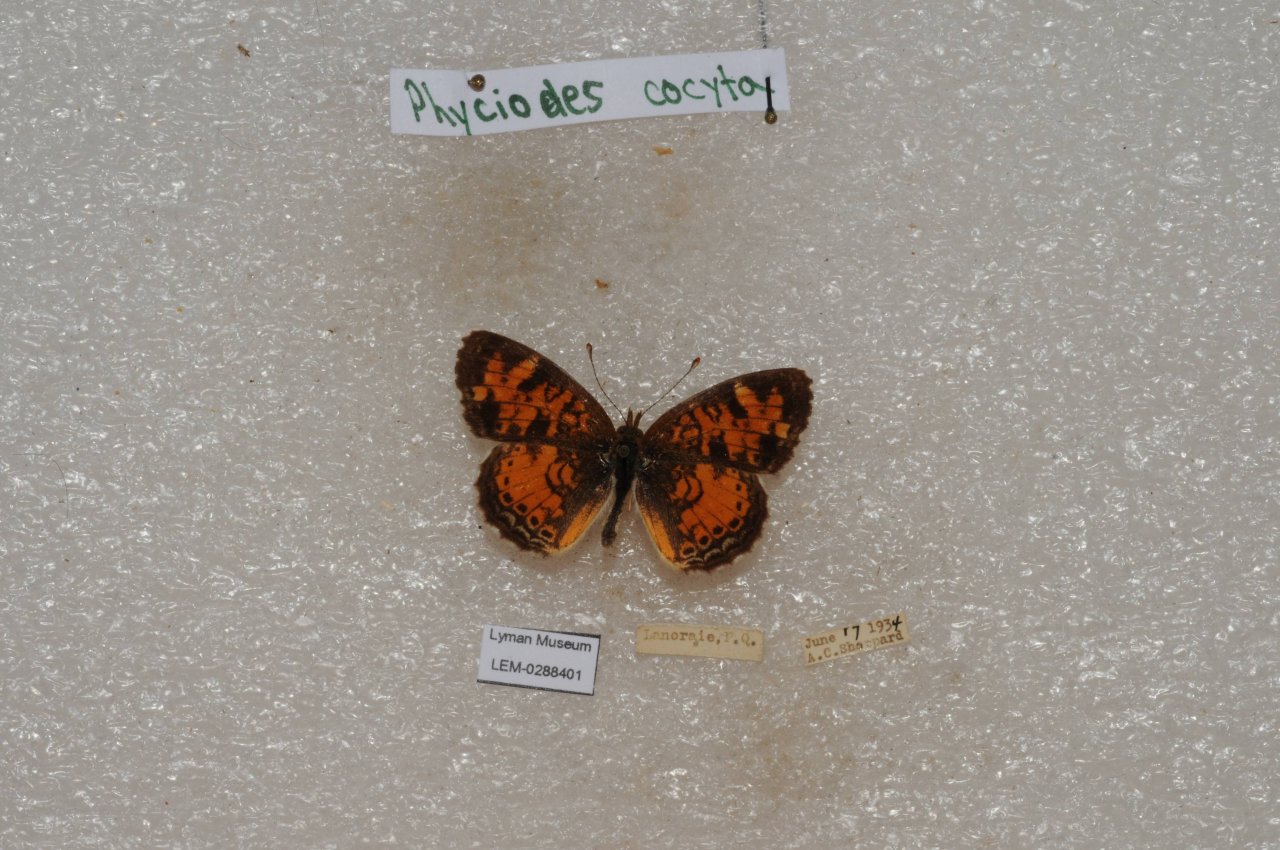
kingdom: Animalia
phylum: Arthropoda
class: Insecta
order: Lepidoptera
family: Nymphalidae
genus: Phyciodes
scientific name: Phyciodes tharos
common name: Northern Crescent
